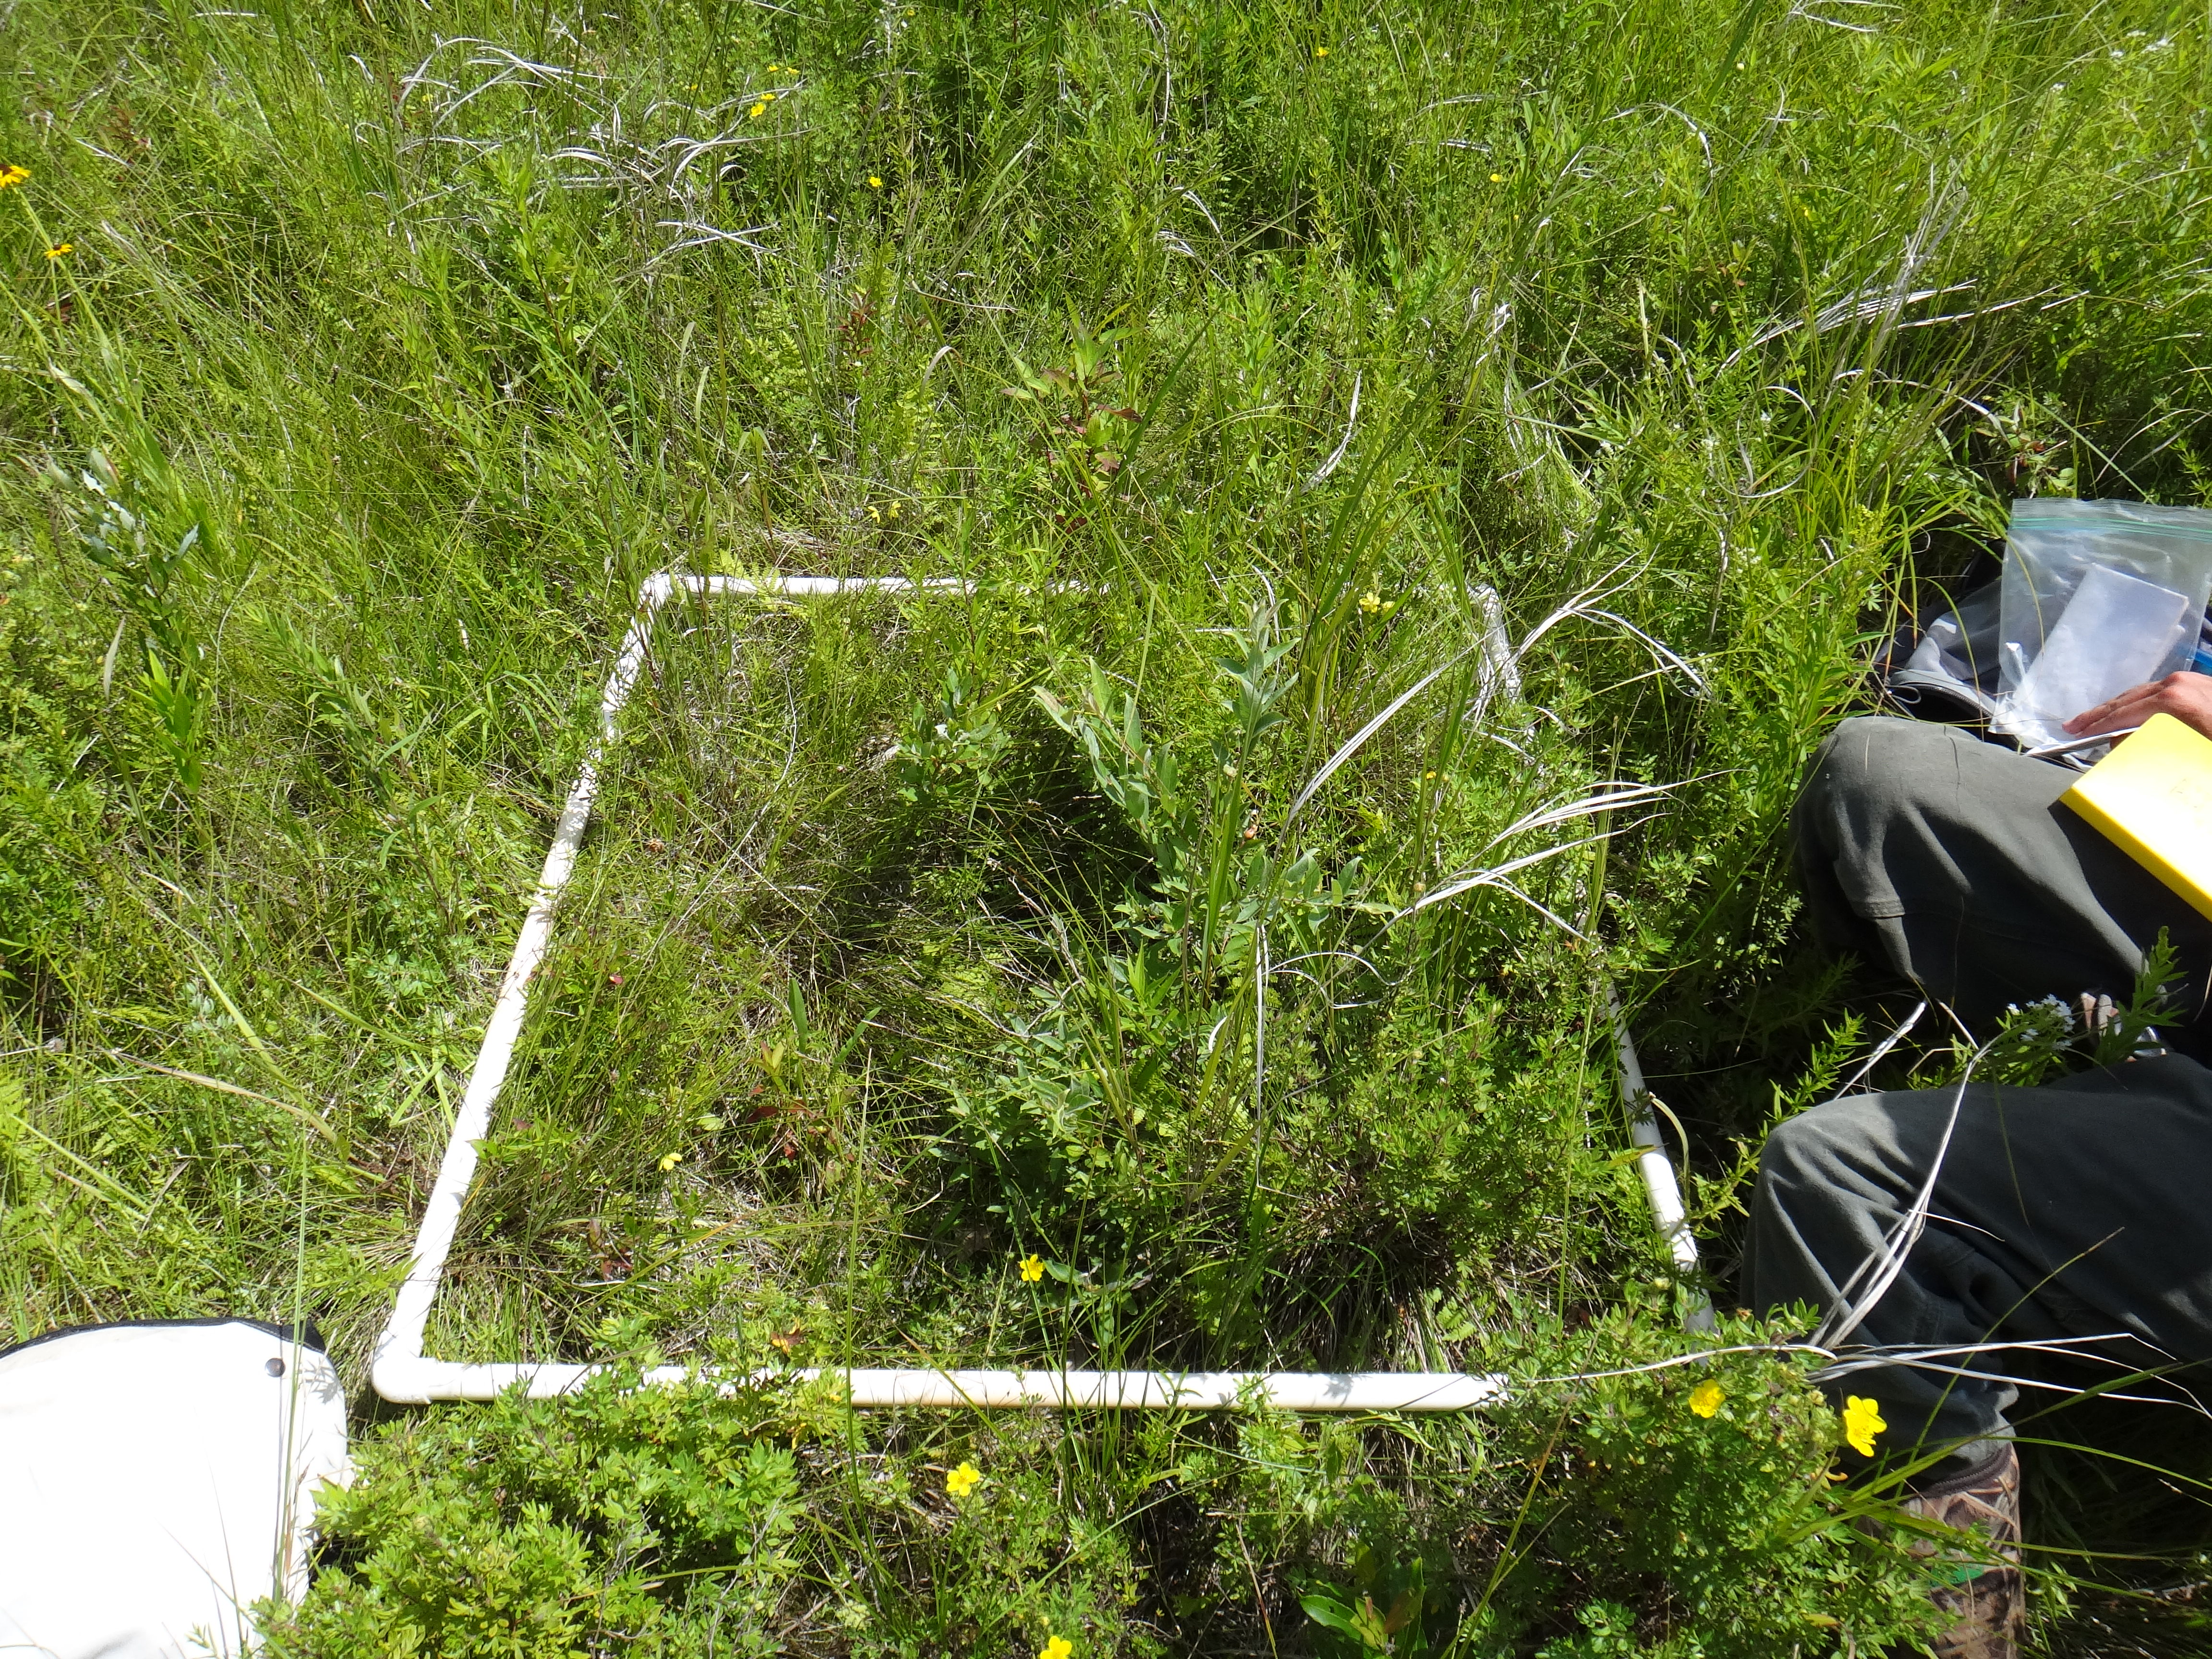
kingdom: Plantae
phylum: Tracheophyta
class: Magnoliopsida
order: Asterales
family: Asteraceae
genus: Symphyotrichum
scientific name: Symphyotrichum lanceolatum
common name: Panicled aster
